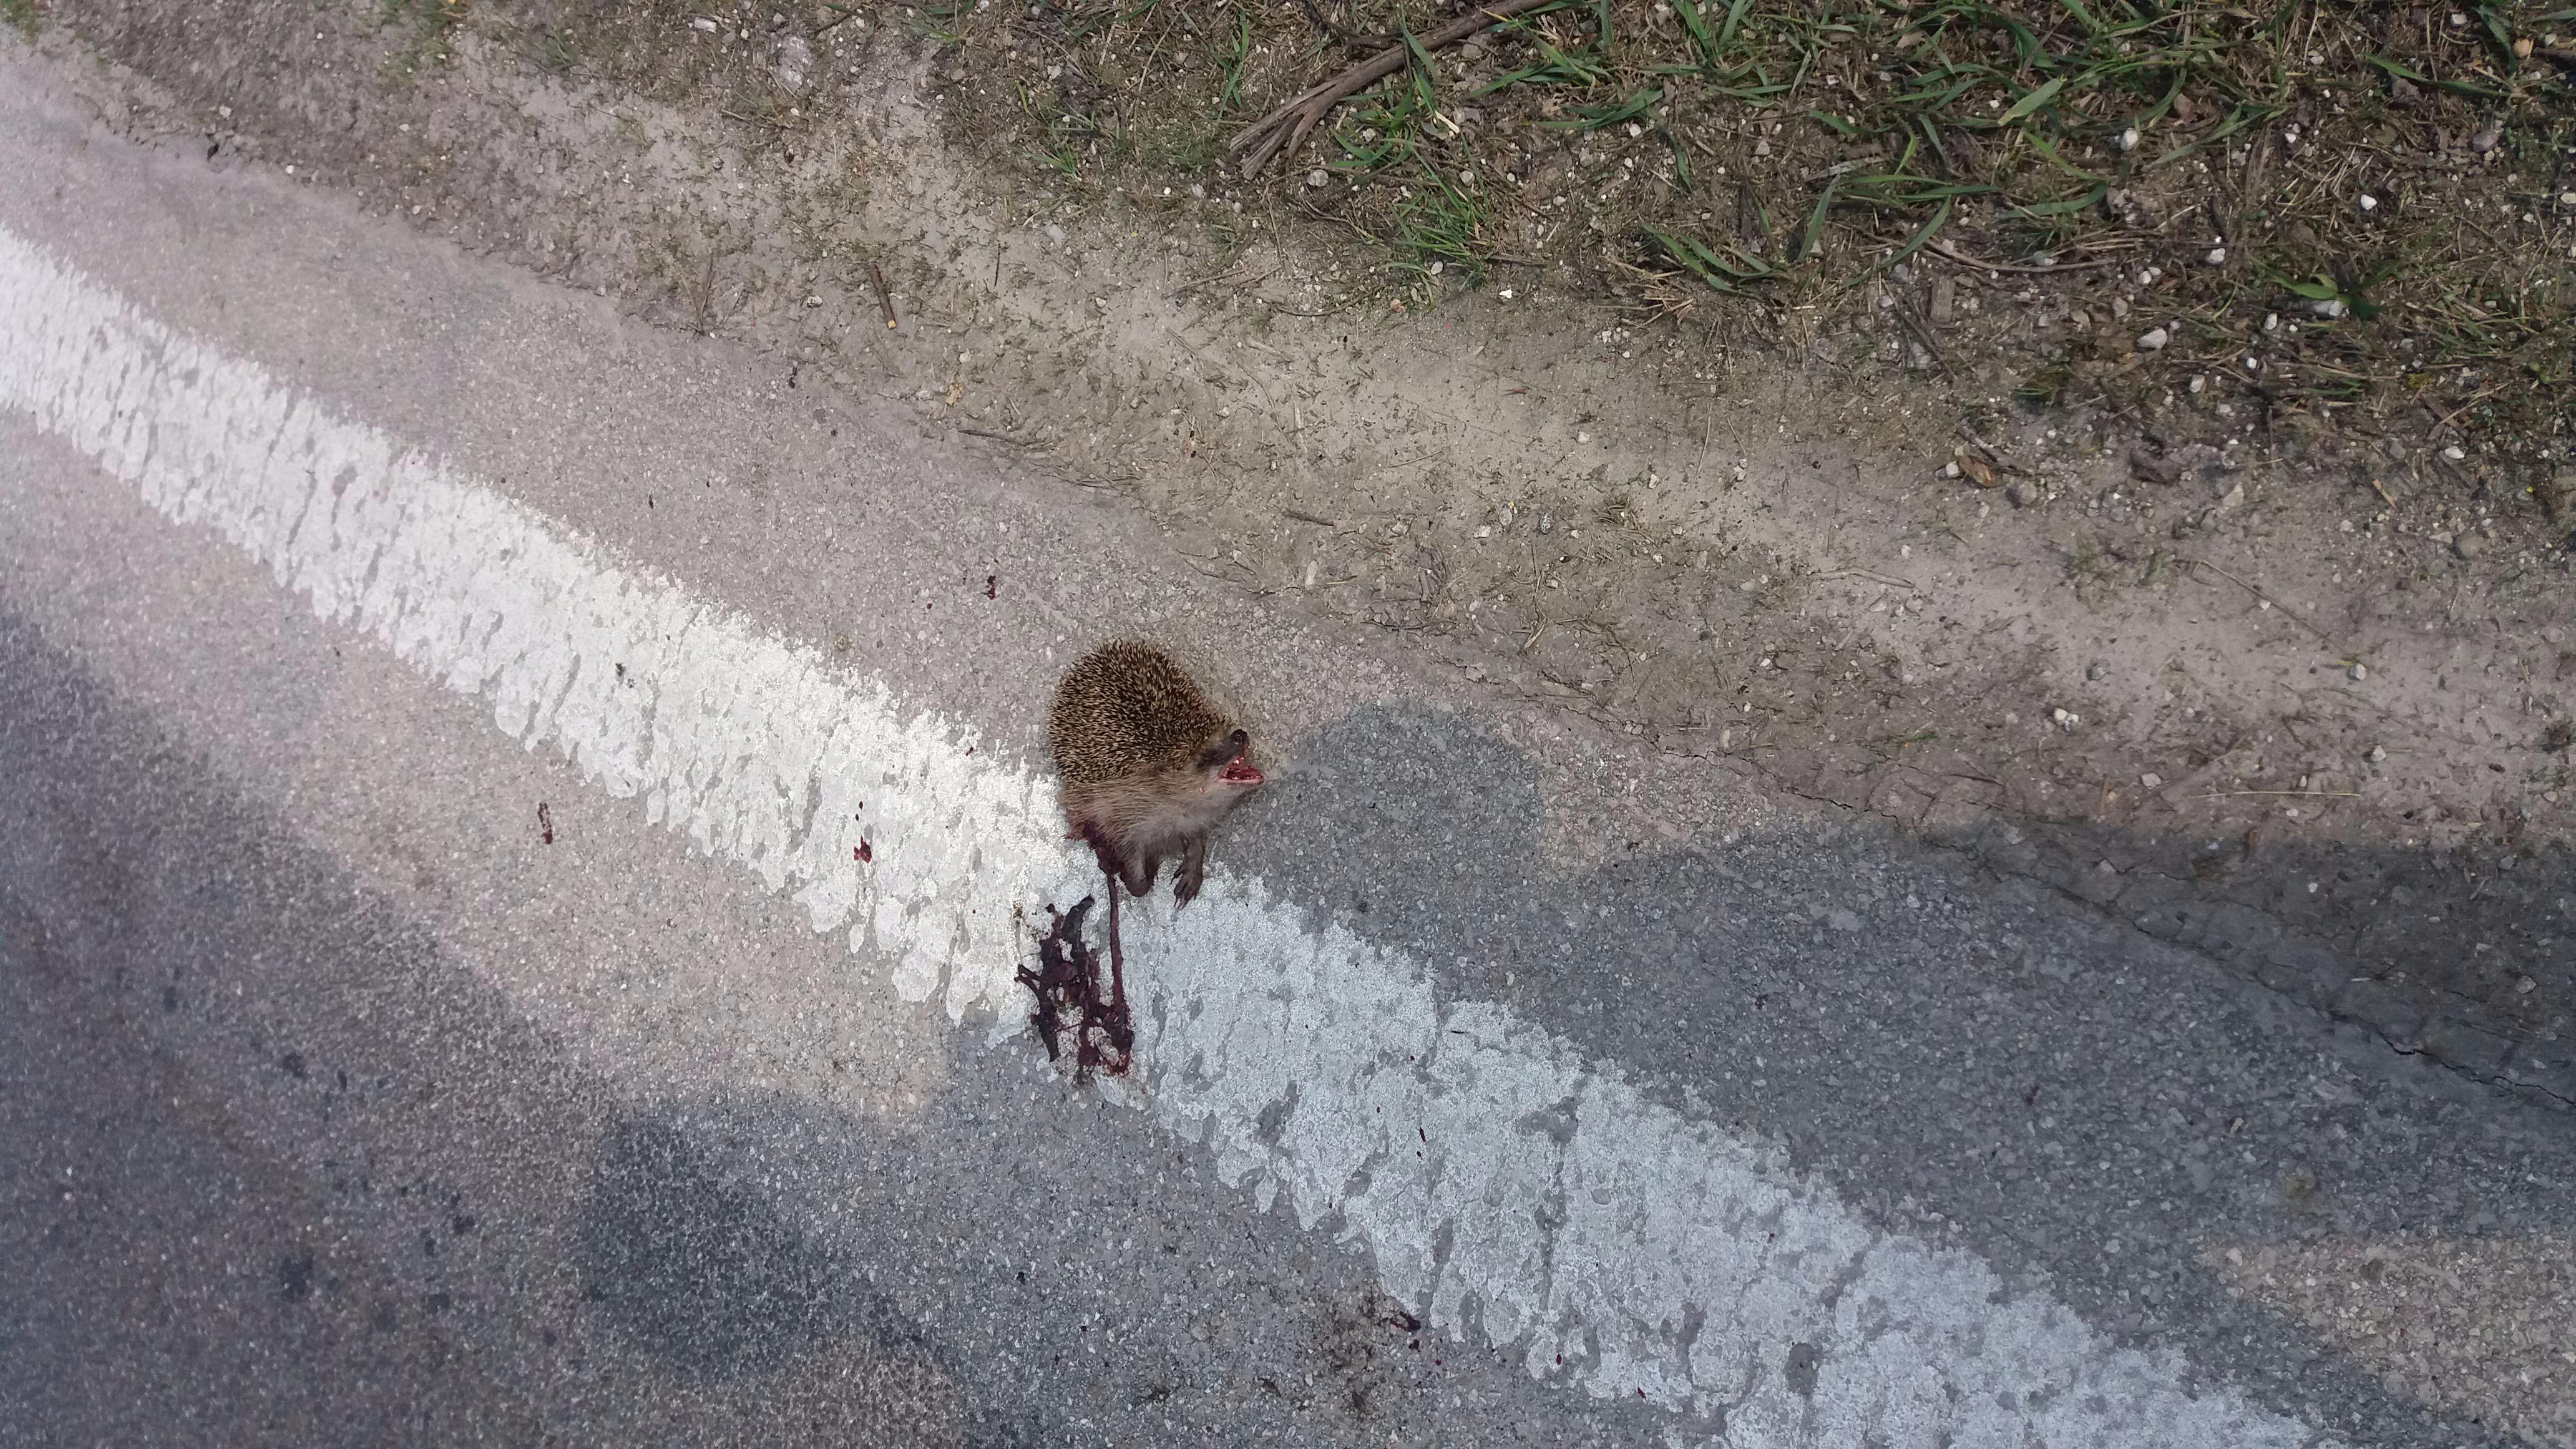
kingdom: Animalia
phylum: Chordata
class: Mammalia
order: Erinaceomorpha
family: Erinaceidae
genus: Erinaceus
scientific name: Erinaceus
